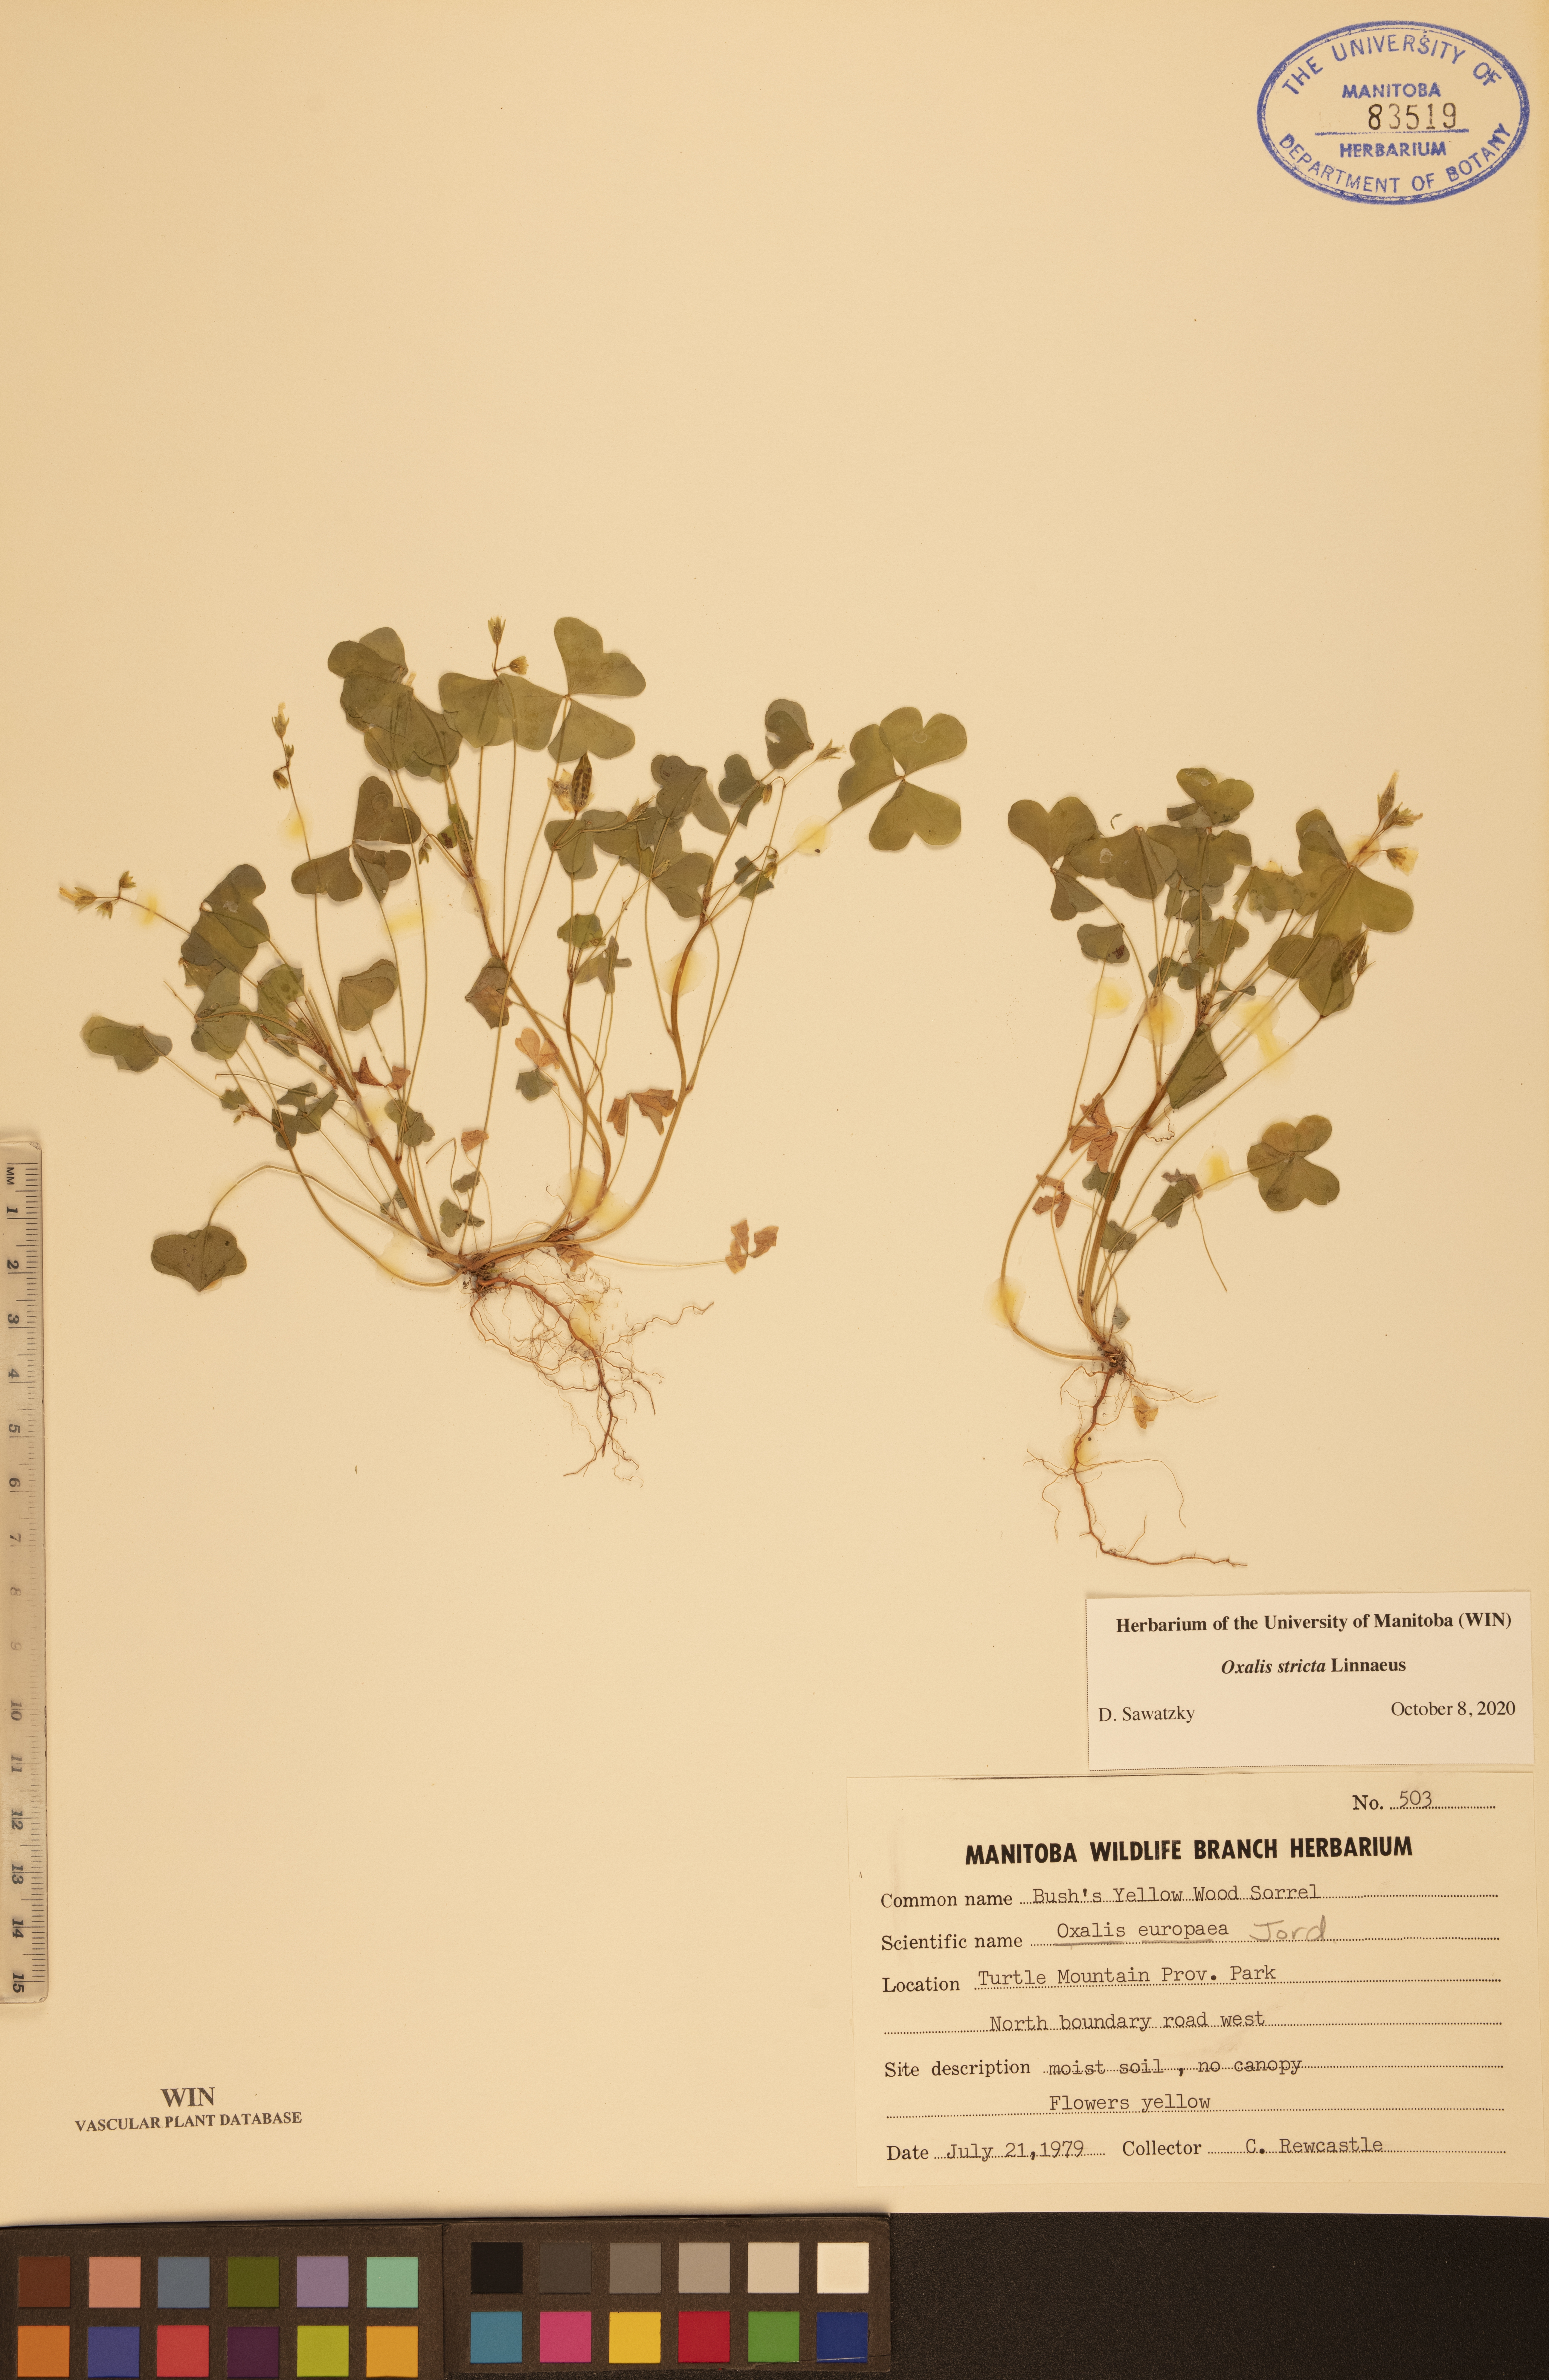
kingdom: Plantae
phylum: Tracheophyta
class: Magnoliopsida
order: Oxalidales
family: Oxalidaceae
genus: Oxalis
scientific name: Oxalis stricta
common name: Upright yellow-sorrel
